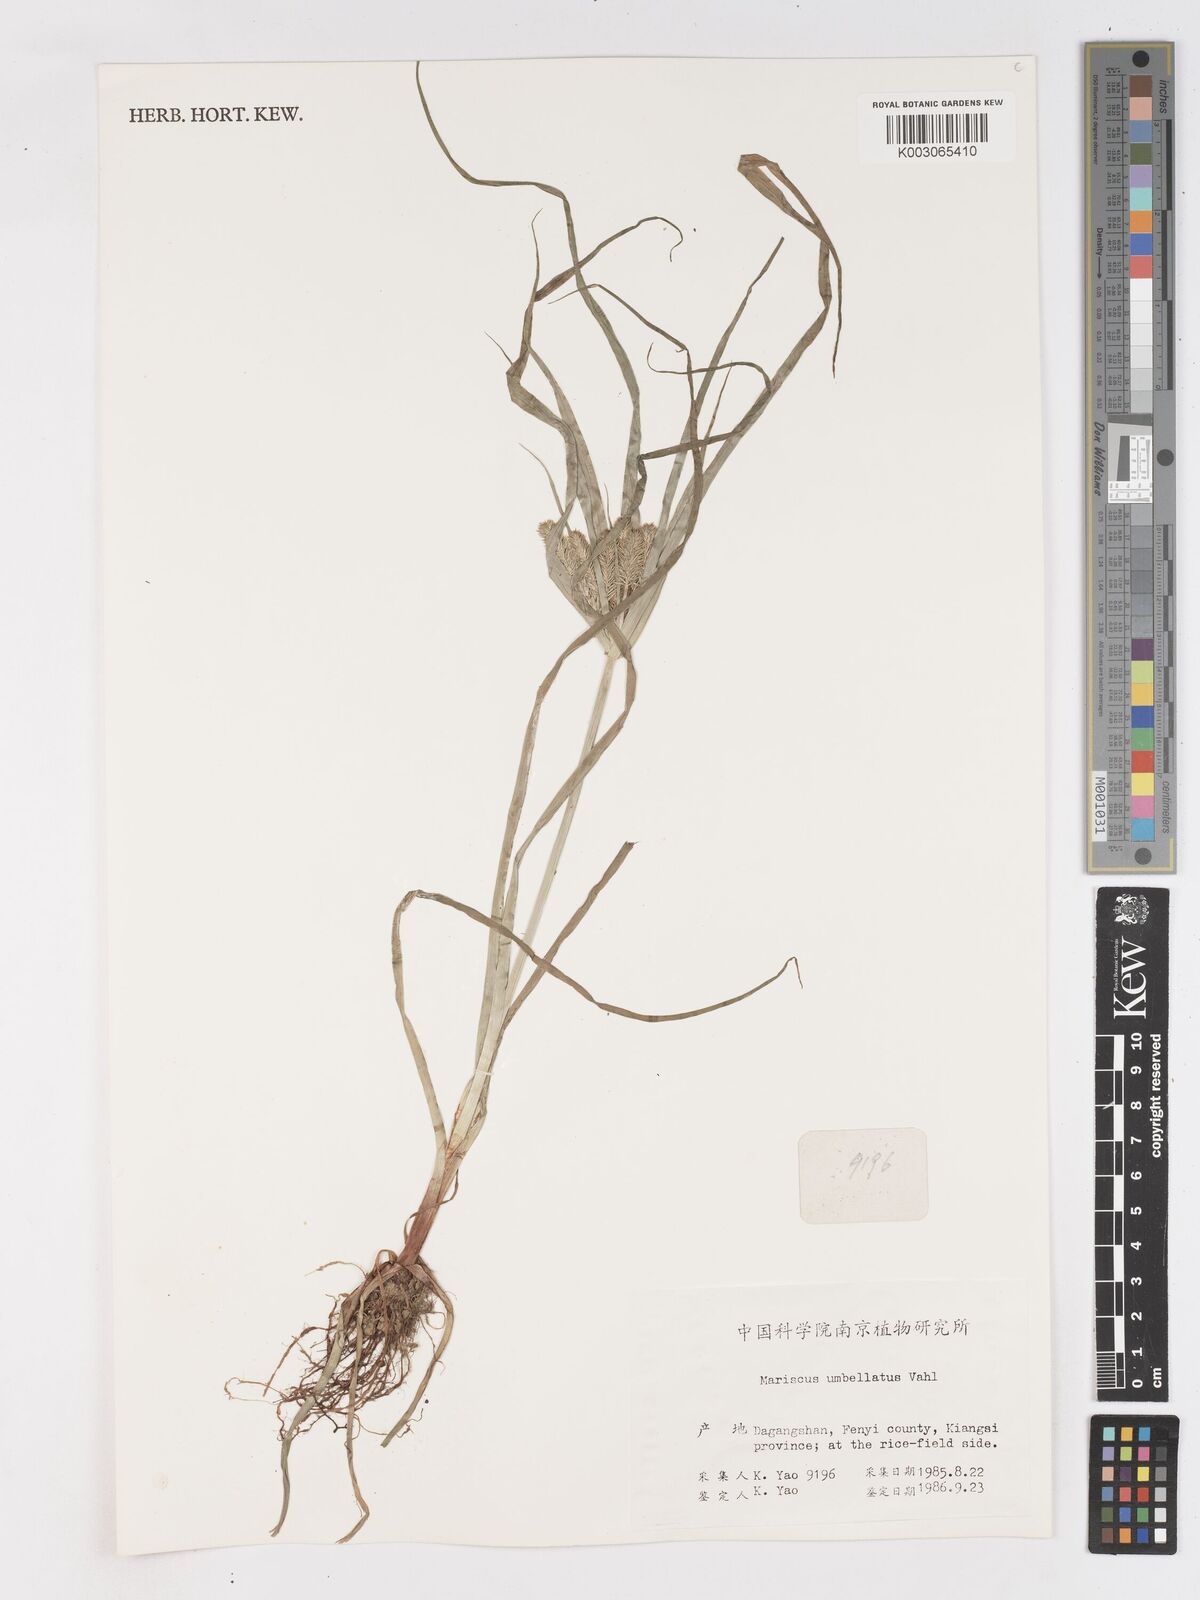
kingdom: Plantae
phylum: Tracheophyta
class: Liliopsida
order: Poales
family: Cyperaceae
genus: Cyperus
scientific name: Cyperus cyperoides
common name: Pacific island flat sedge
